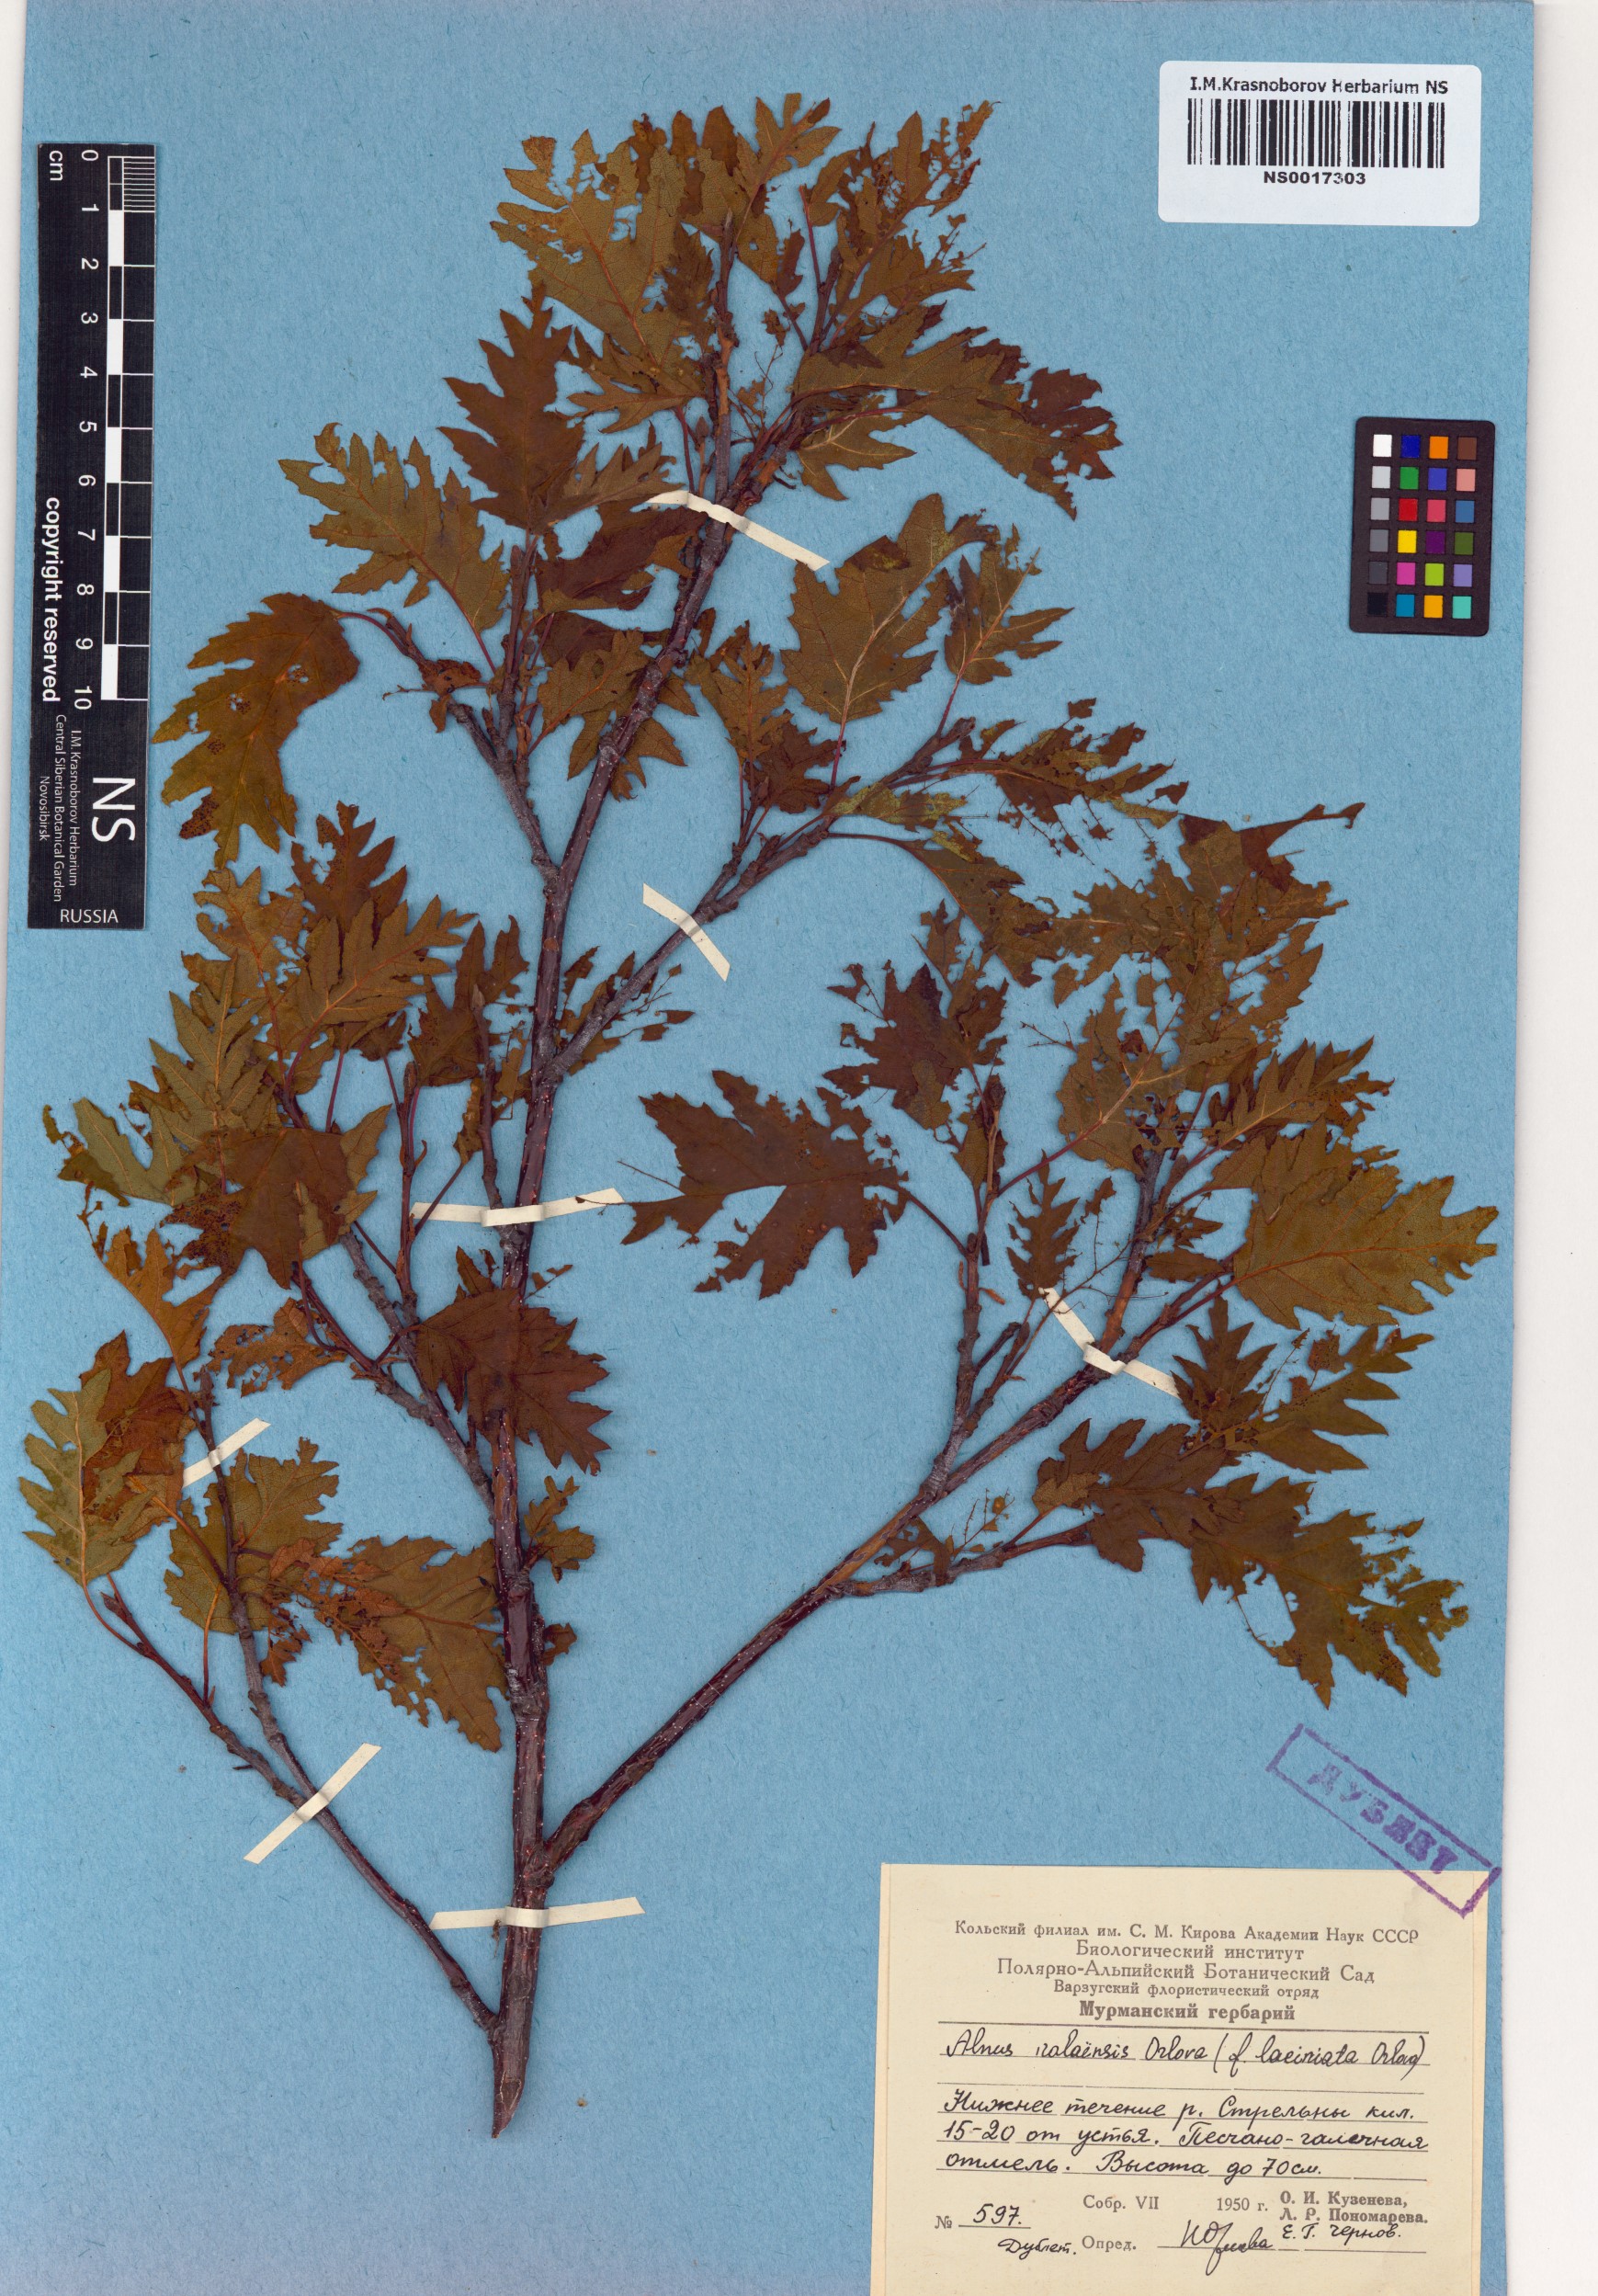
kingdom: Plantae
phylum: Tracheophyta
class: Magnoliopsida
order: Fagales
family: Betulaceae
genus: Alnus
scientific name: Alnus incana
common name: Grey alder
